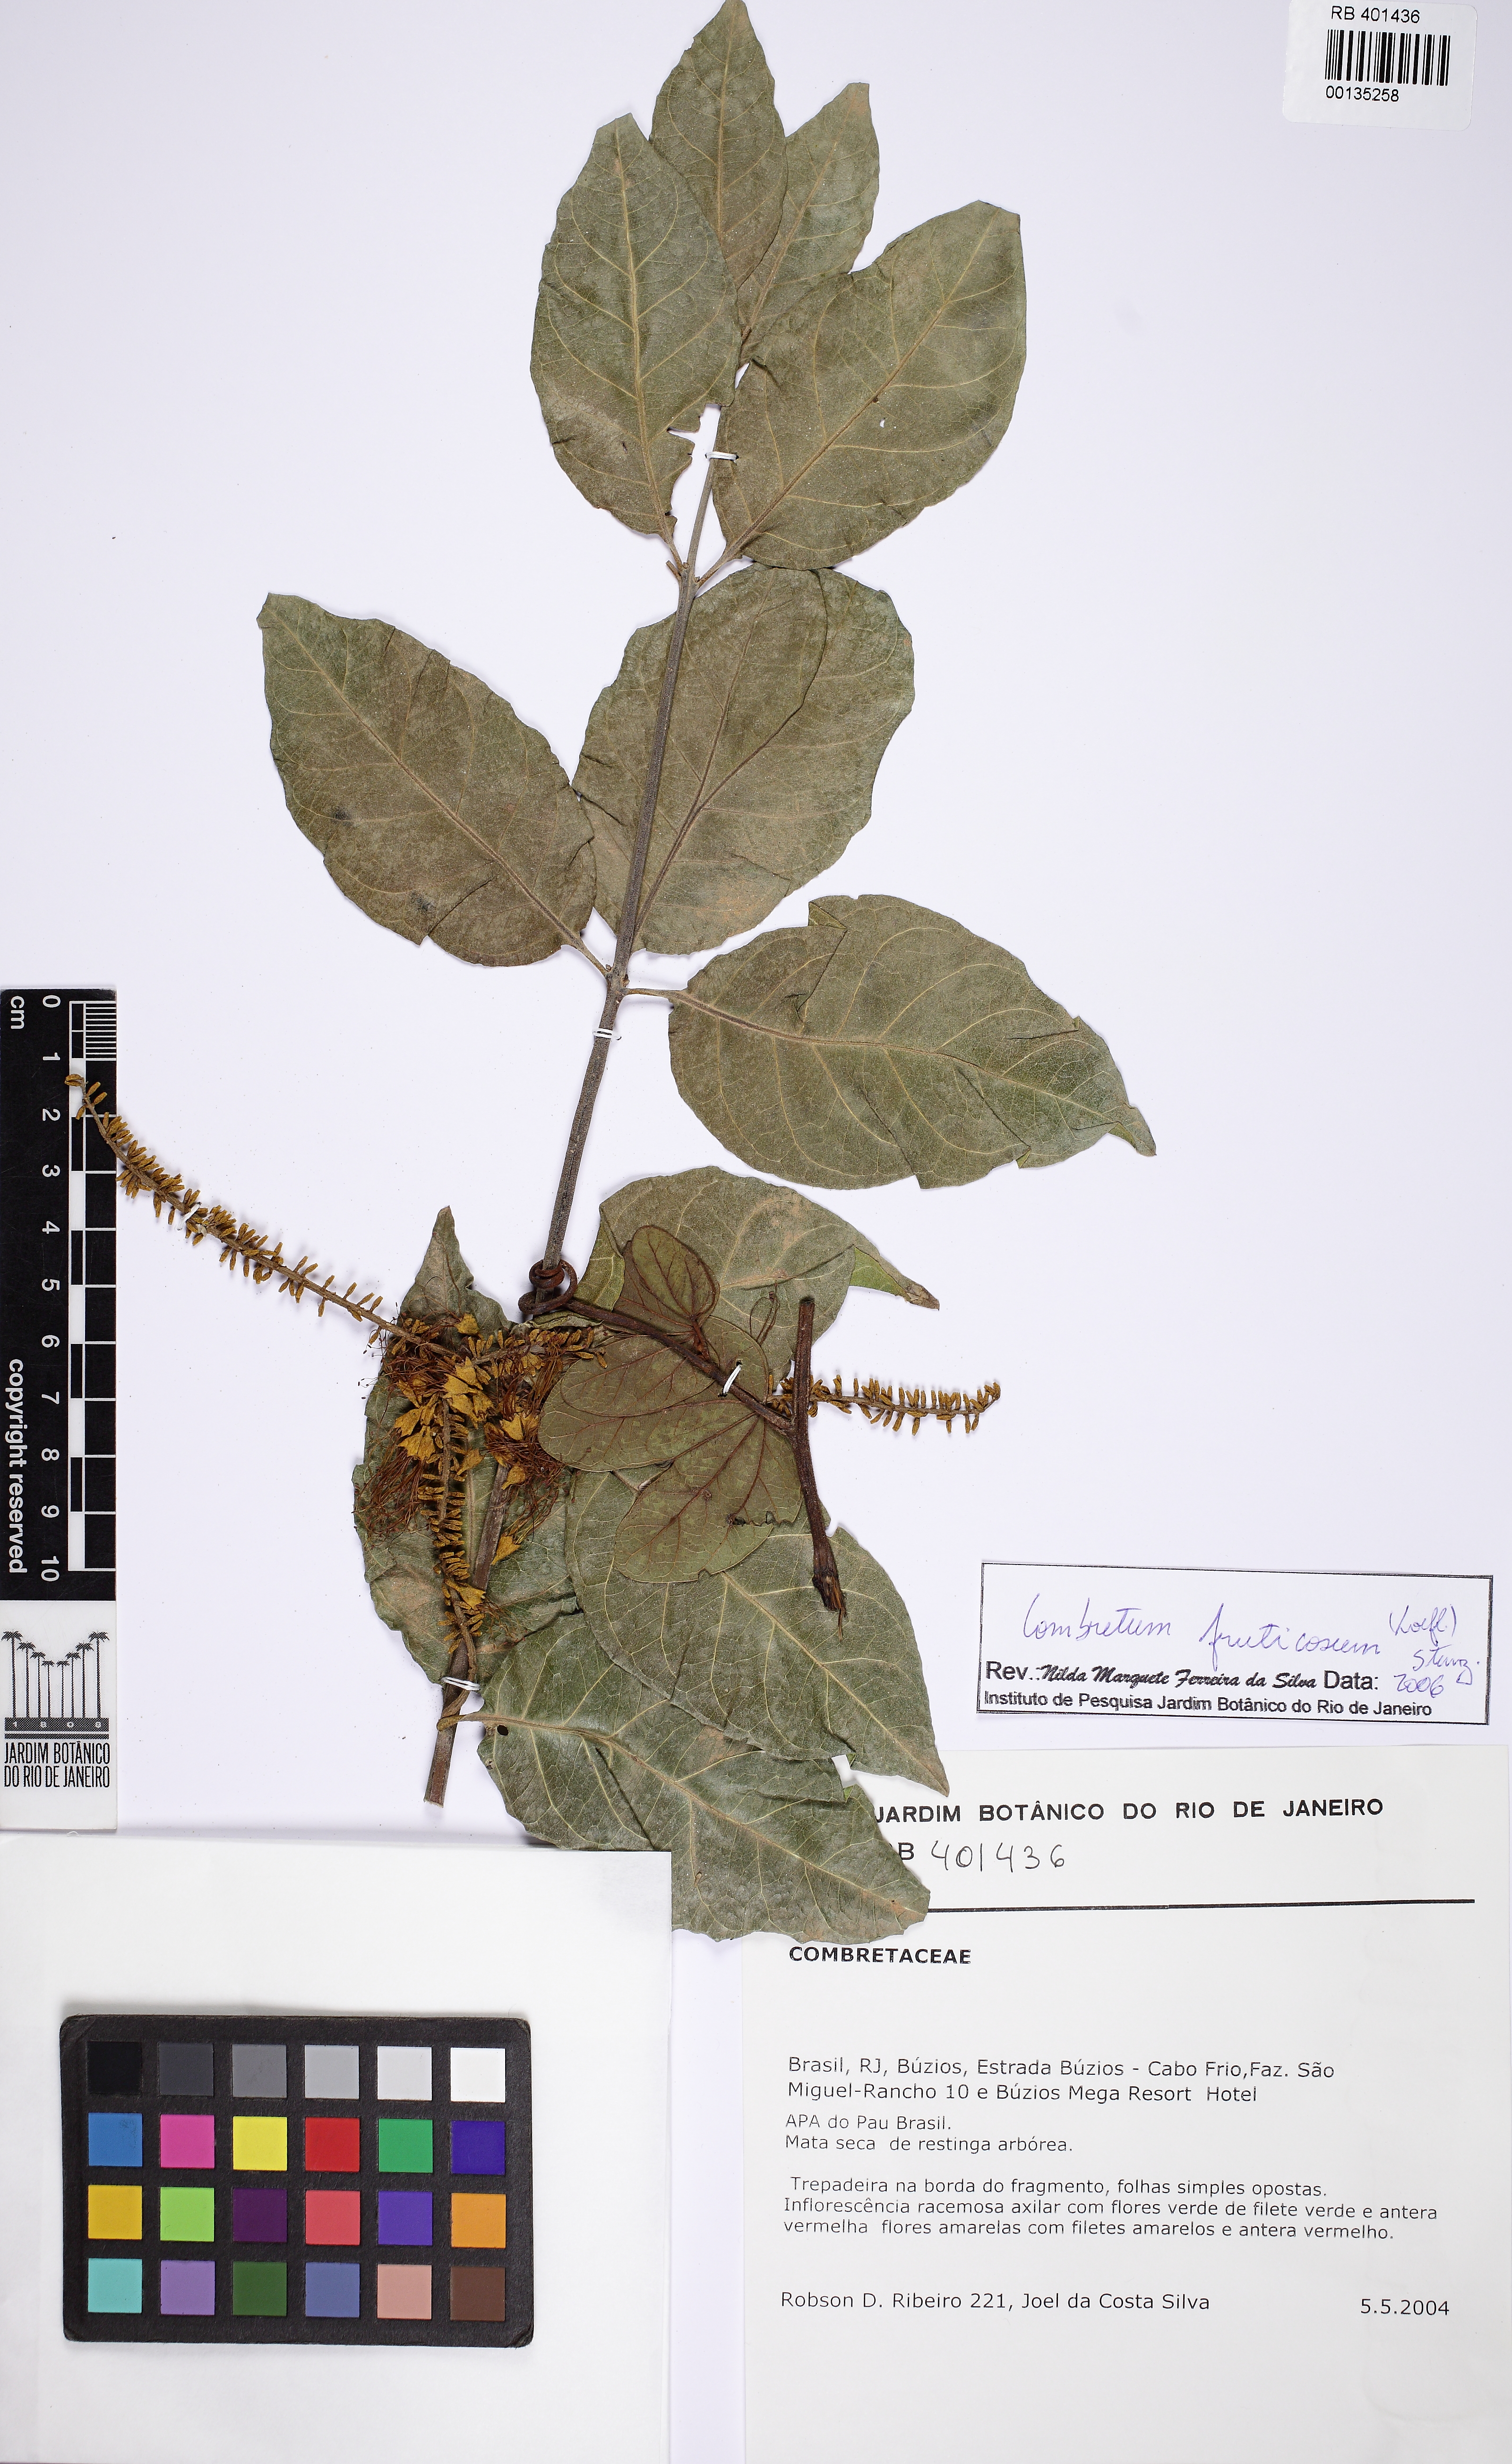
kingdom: Plantae
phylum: Tracheophyta
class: Magnoliopsida
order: Myrtales
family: Combretaceae
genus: Combretum
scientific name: Combretum fruticosum
